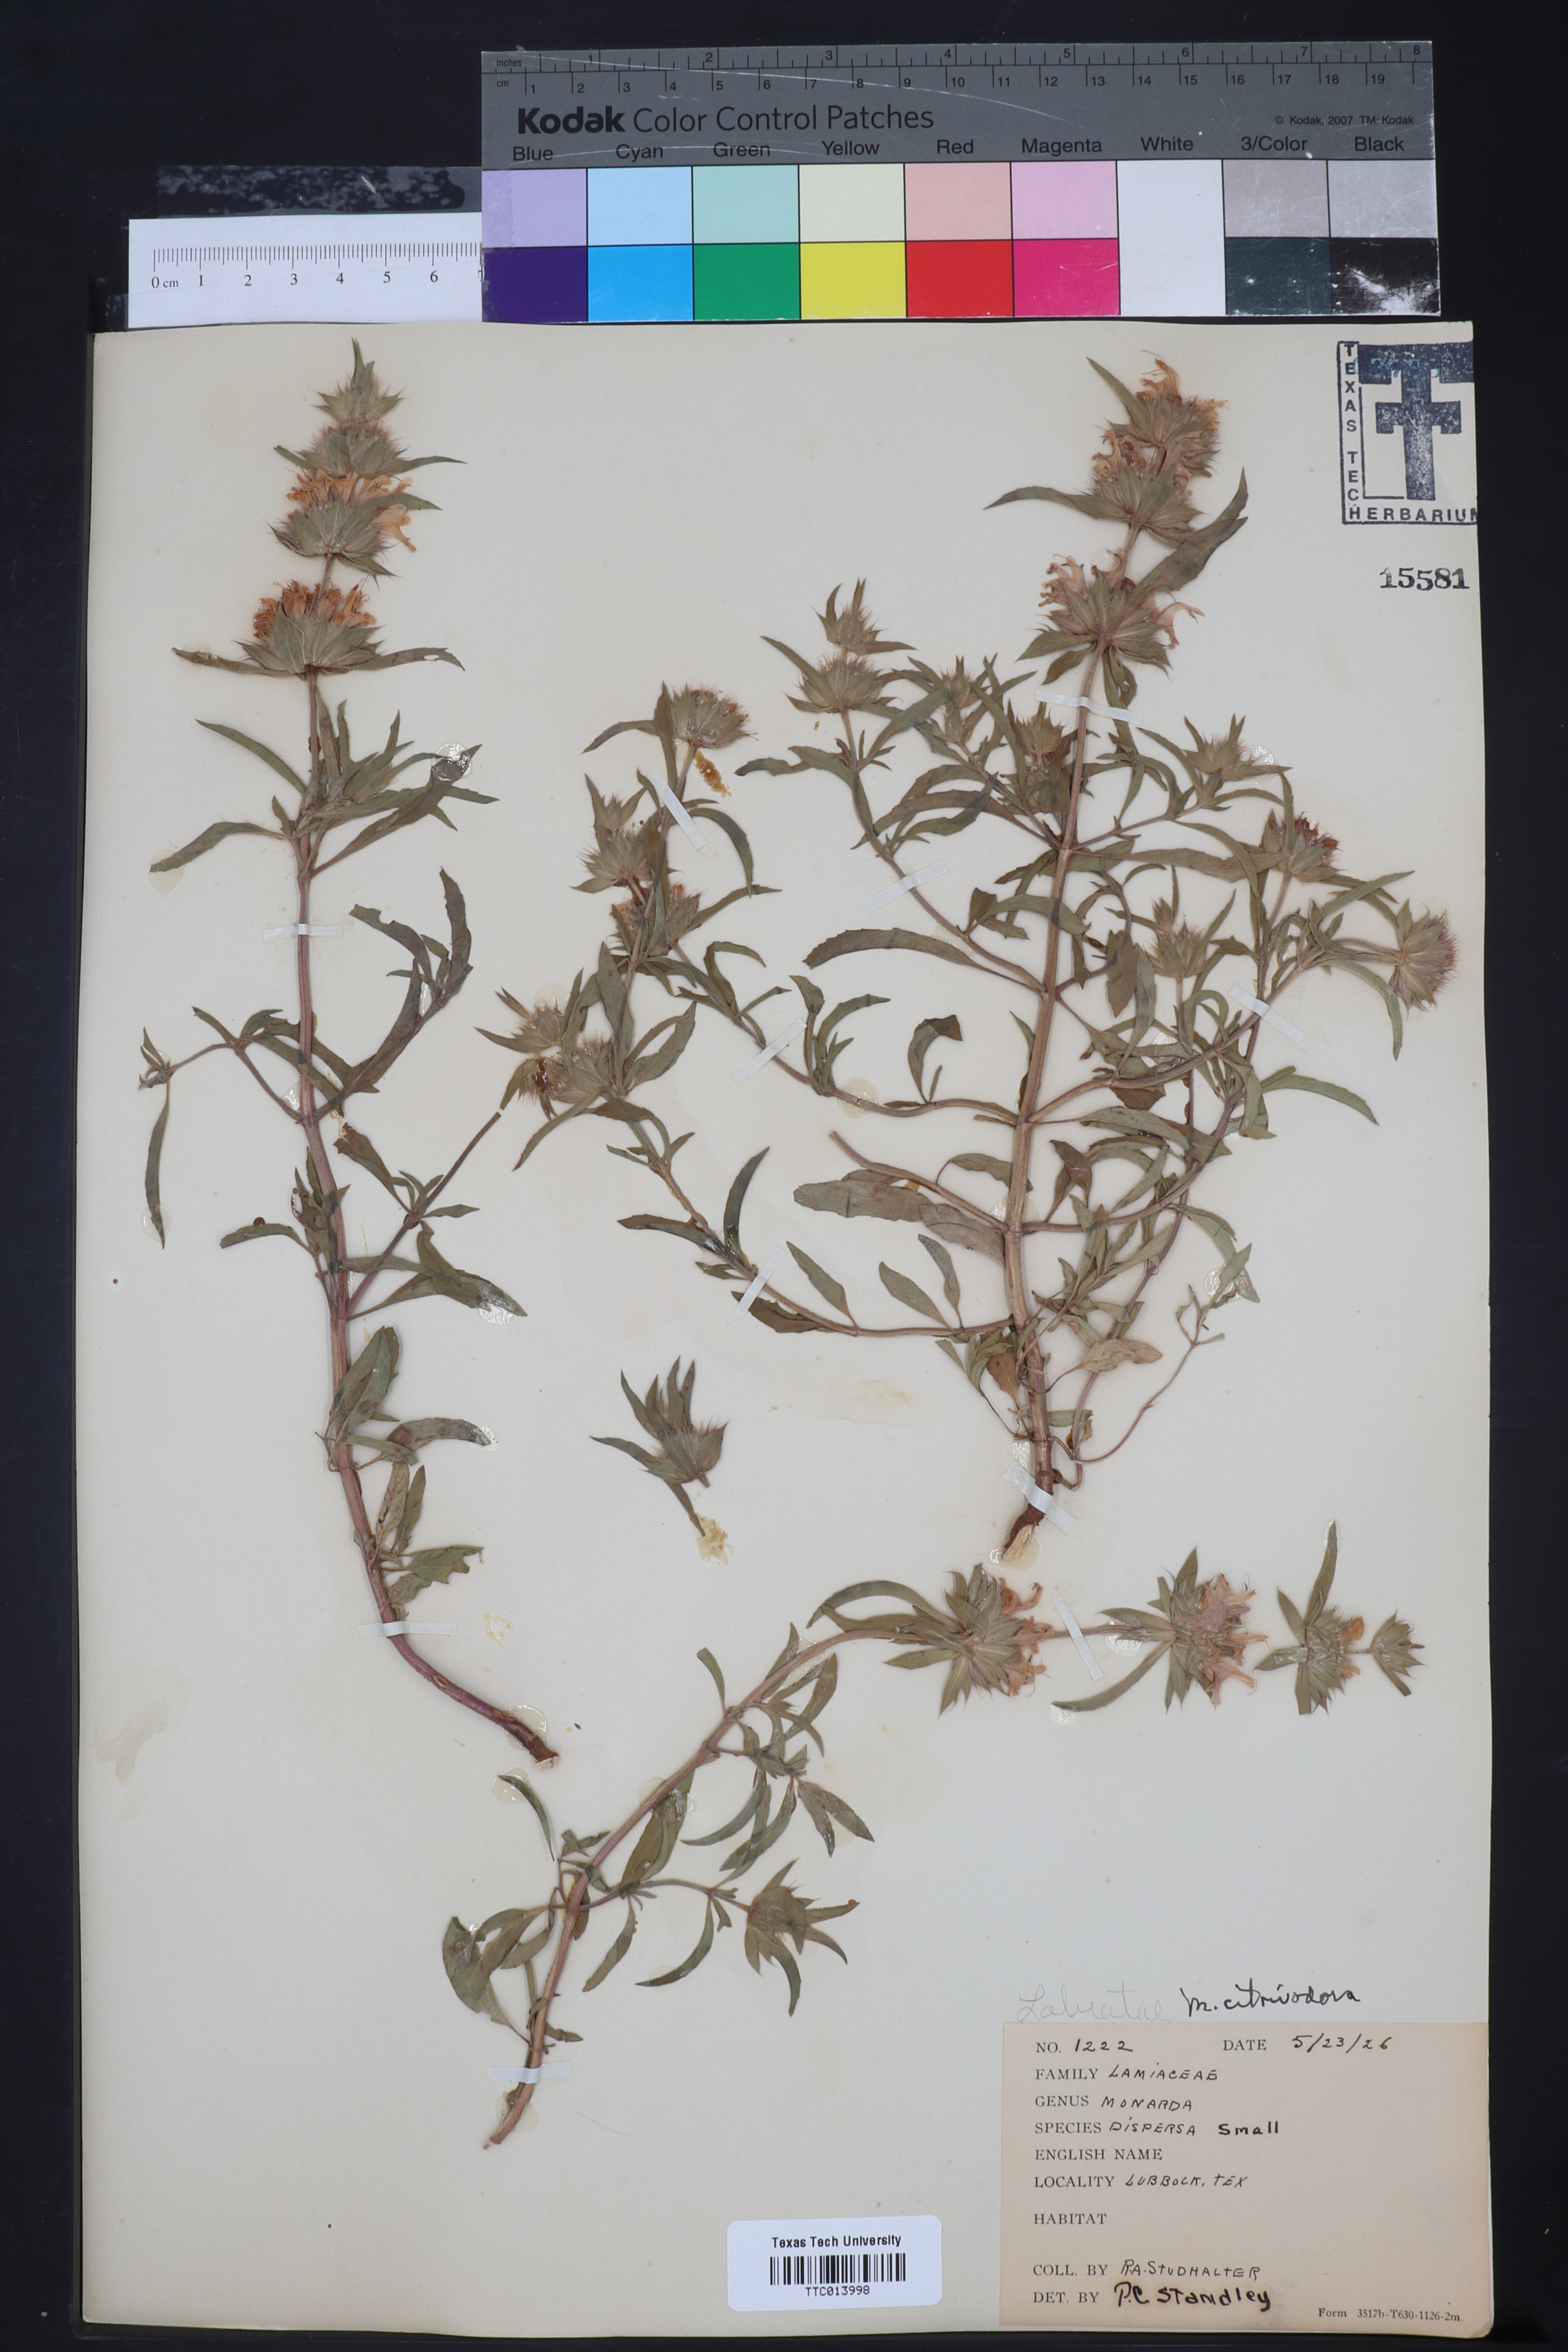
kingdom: Plantae
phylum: Tracheophyta
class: Magnoliopsida
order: Lamiales
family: Lamiaceae
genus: Monarda
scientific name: Monarda citriodora
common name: Lemon beebalm
